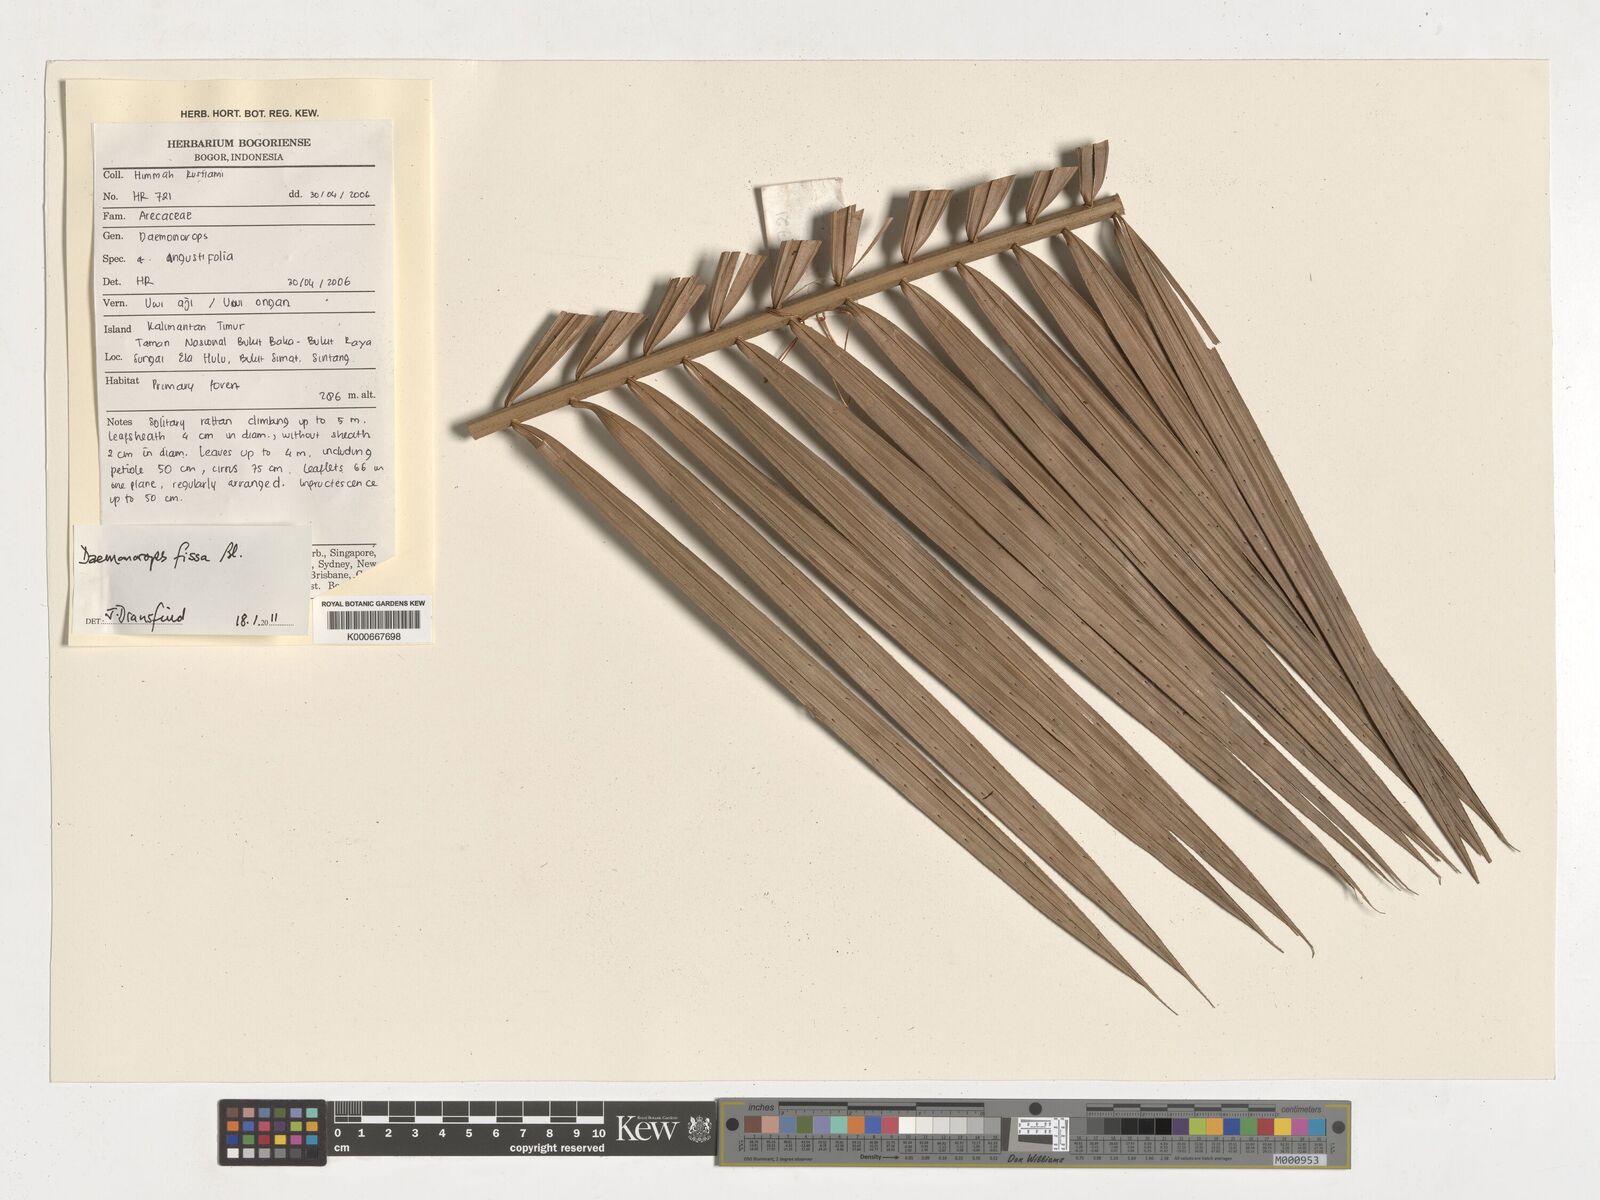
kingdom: Plantae
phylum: Tracheophyta
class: Liliopsida
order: Arecales
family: Arecaceae
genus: Calamus
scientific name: Calamus melanochaetes
